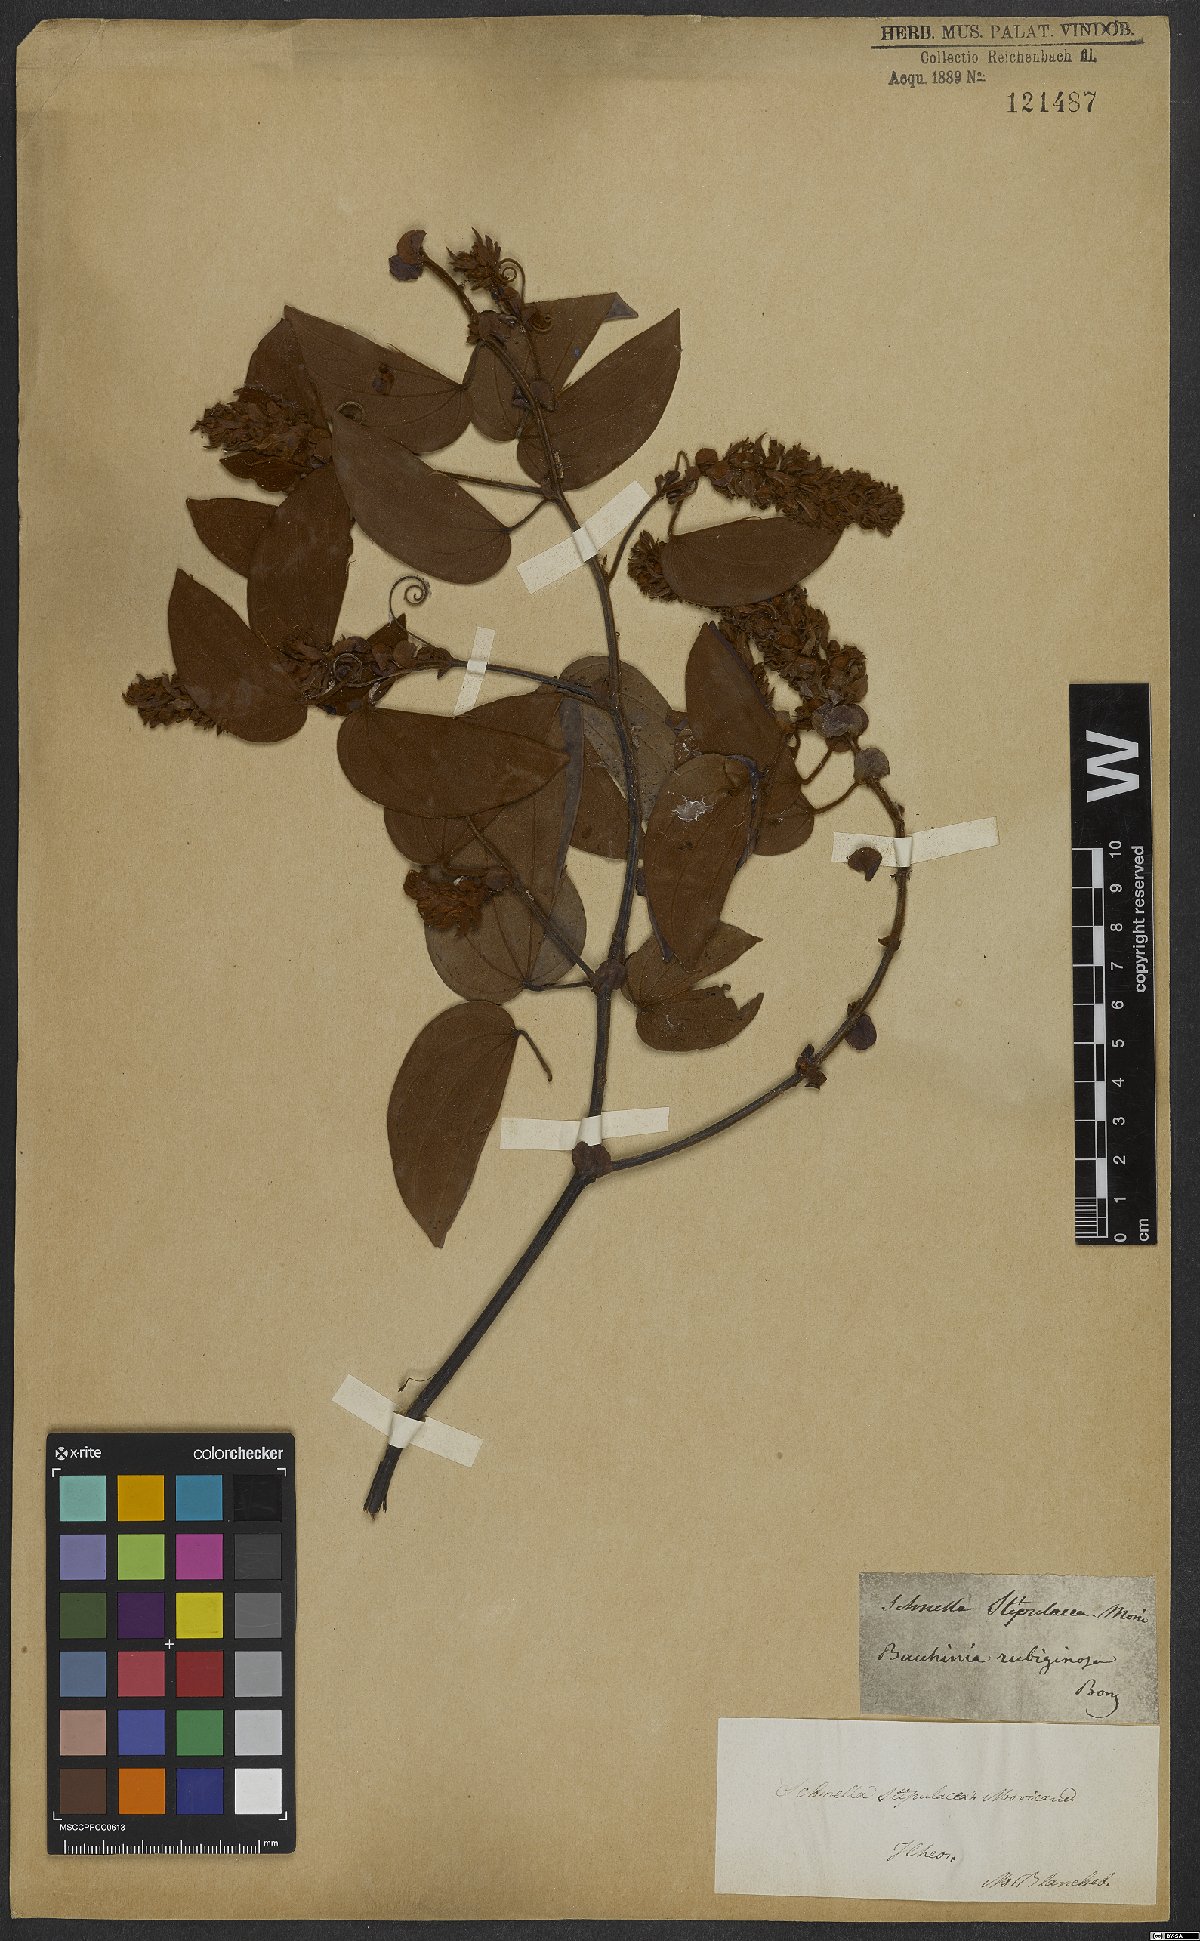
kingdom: Plantae
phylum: Tracheophyta
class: Magnoliopsida
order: Fabales
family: Fabaceae
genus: Schnella
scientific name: Schnella outimouta
